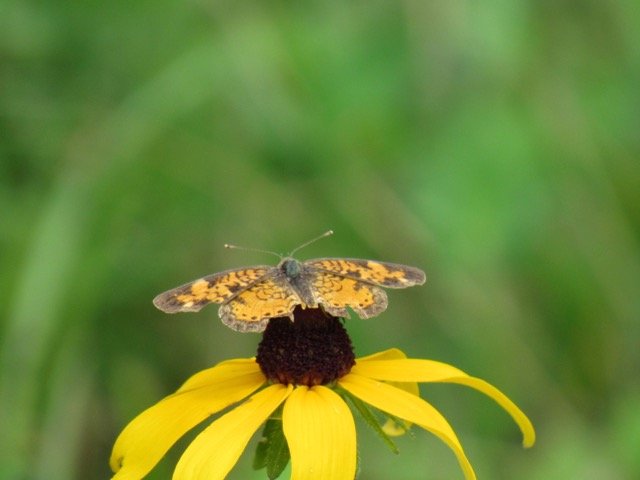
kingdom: Animalia
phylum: Arthropoda
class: Insecta
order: Lepidoptera
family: Nymphalidae
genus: Phyciodes
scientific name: Phyciodes tharos
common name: Pearl Crescent
